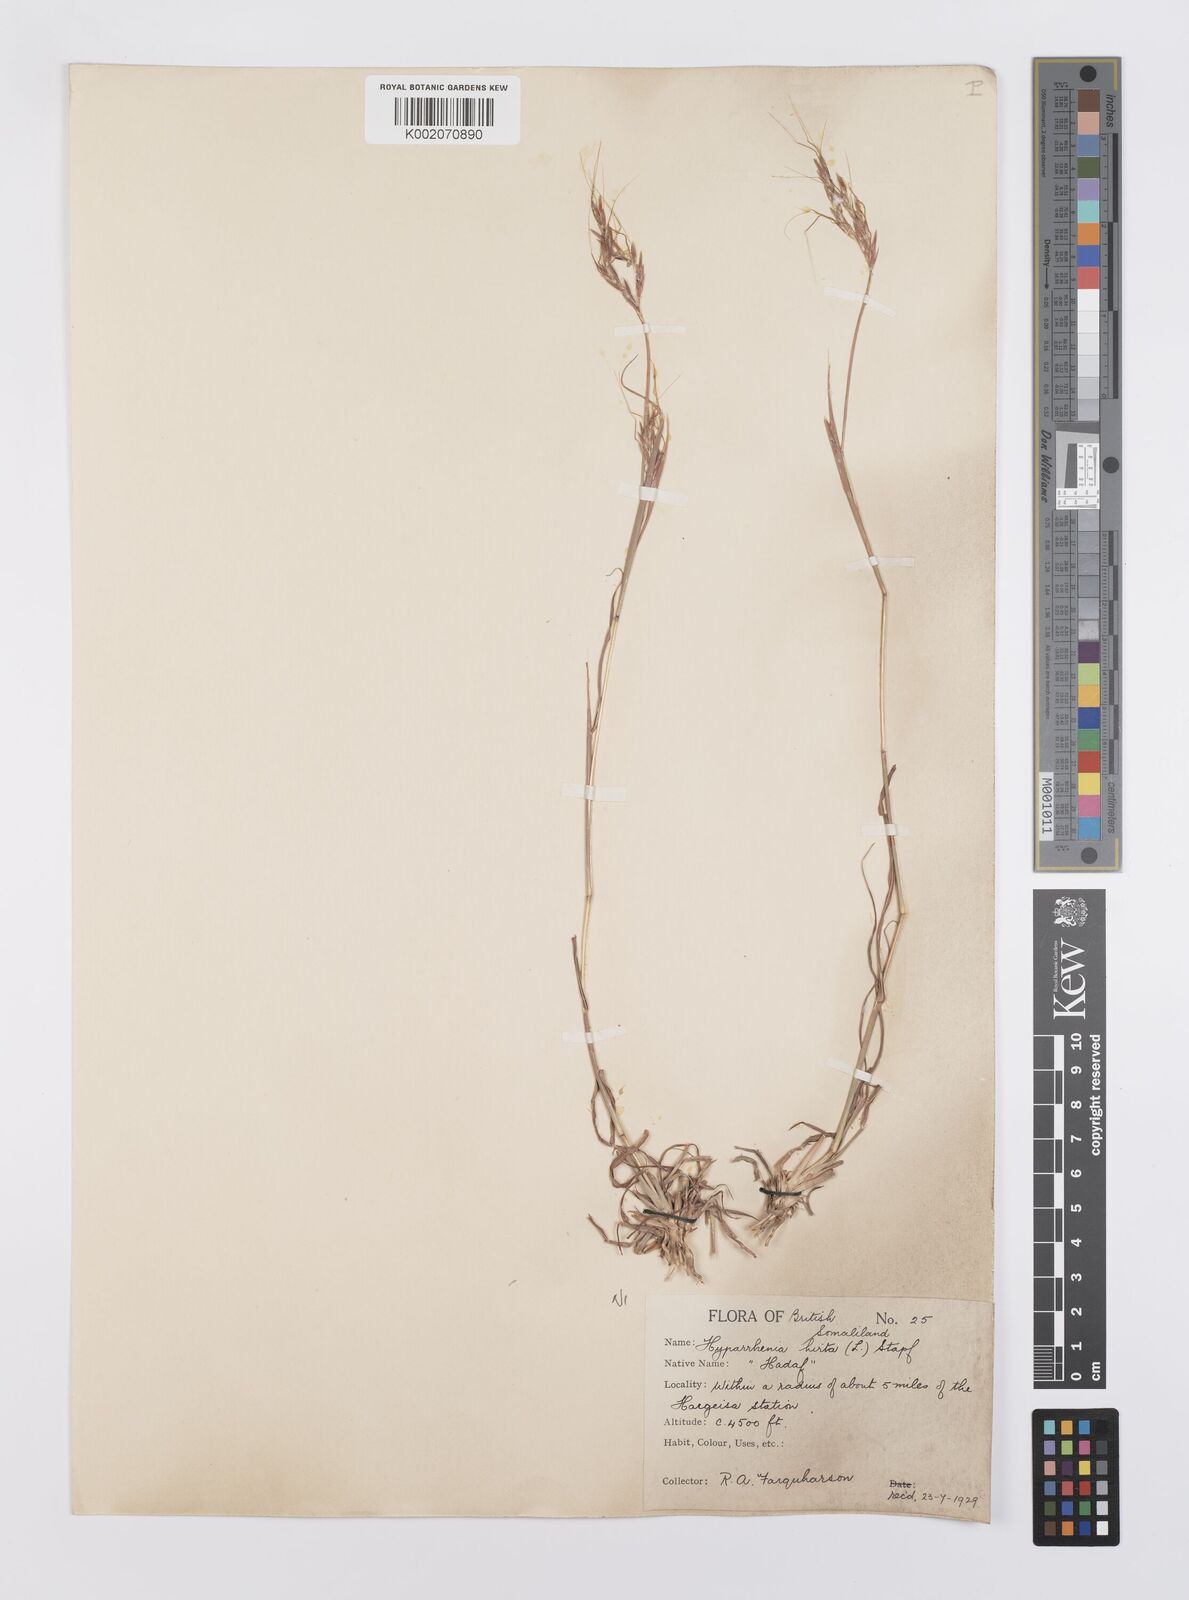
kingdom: Plantae
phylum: Tracheophyta
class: Liliopsida
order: Poales
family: Poaceae
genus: Hyparrhenia
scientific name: Hyparrhenia hirta
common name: Thatching grass
